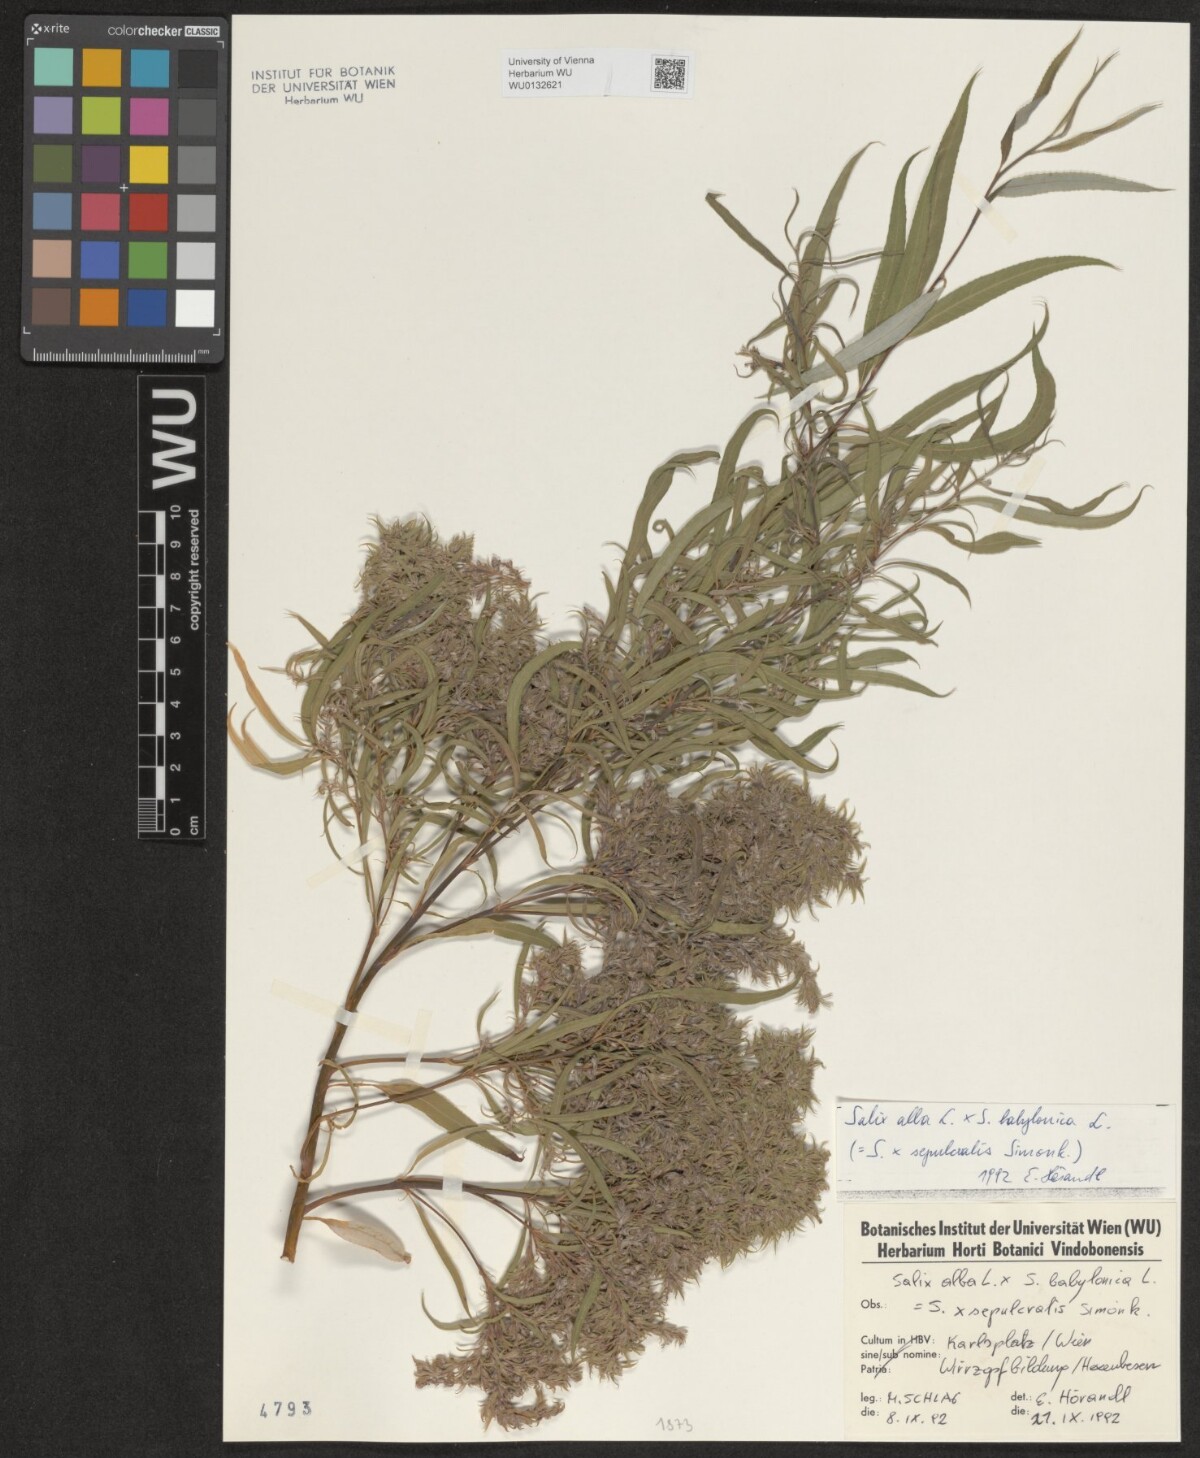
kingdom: Plantae
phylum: Tracheophyta
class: Magnoliopsida
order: Malpighiales
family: Salicaceae
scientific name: Salicaceae
